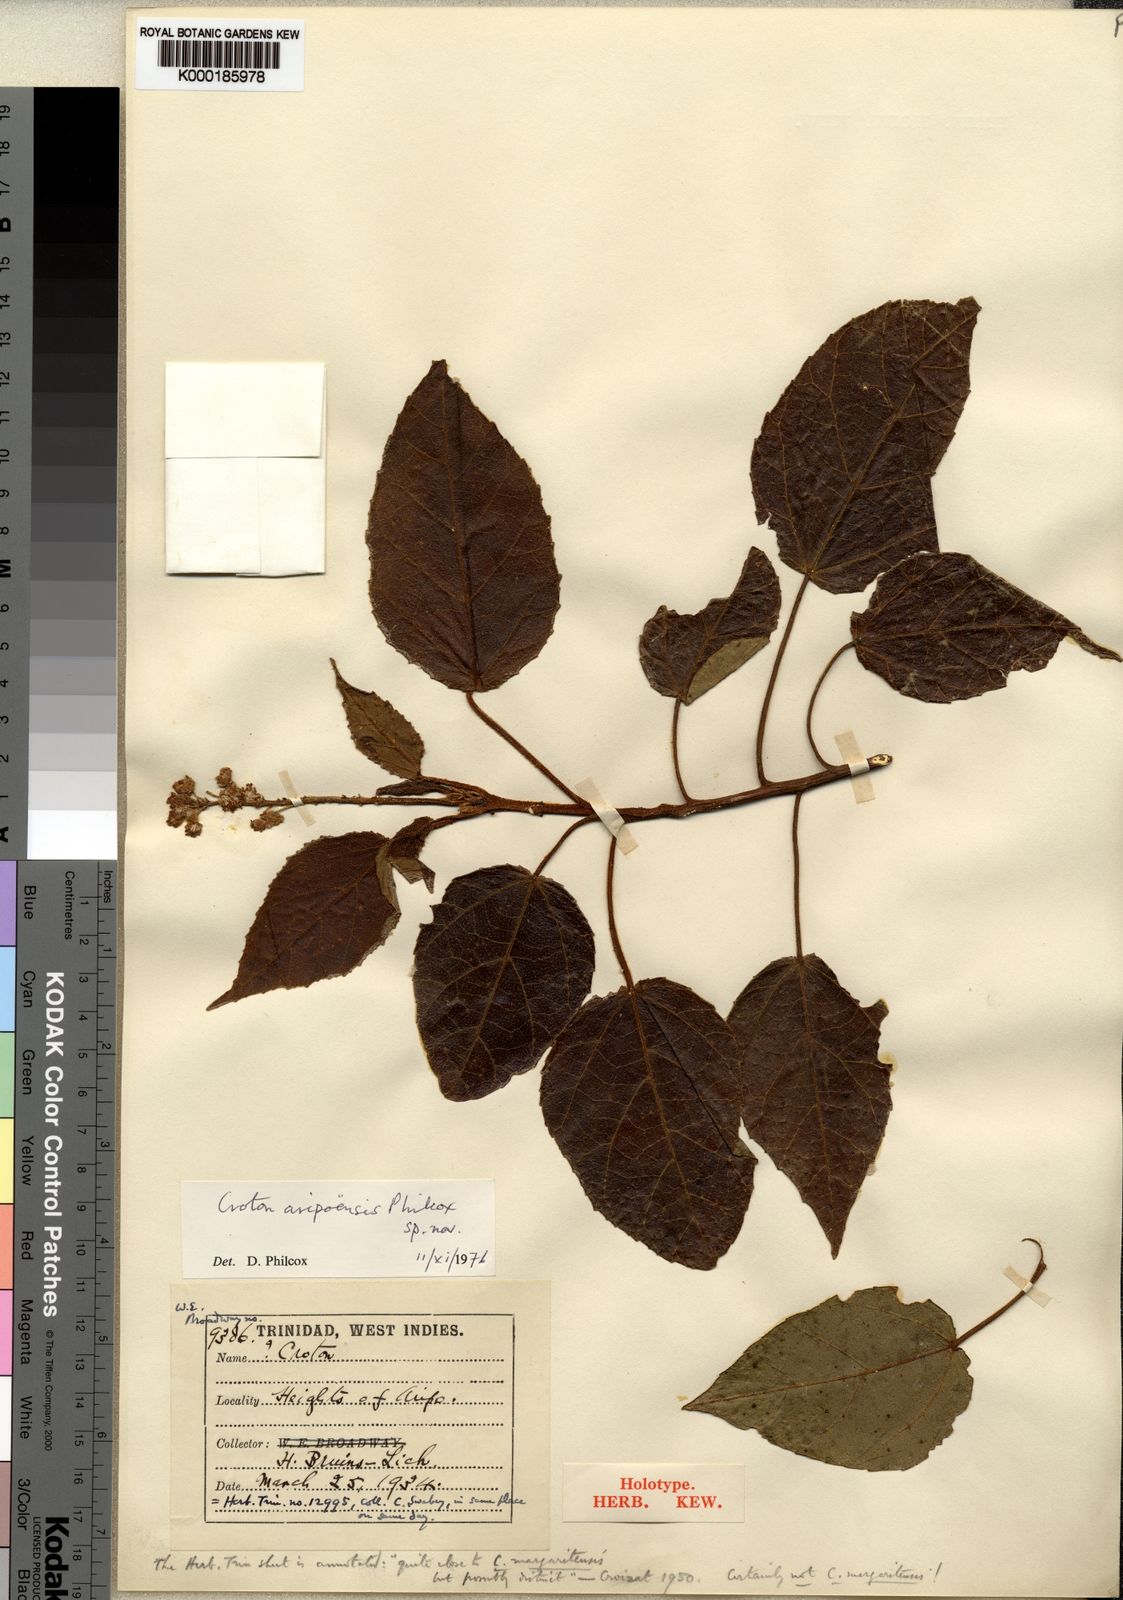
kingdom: Plantae
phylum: Tracheophyta
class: Magnoliopsida
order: Malpighiales
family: Euphorbiaceae
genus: Croton
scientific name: Croton aripoensis
